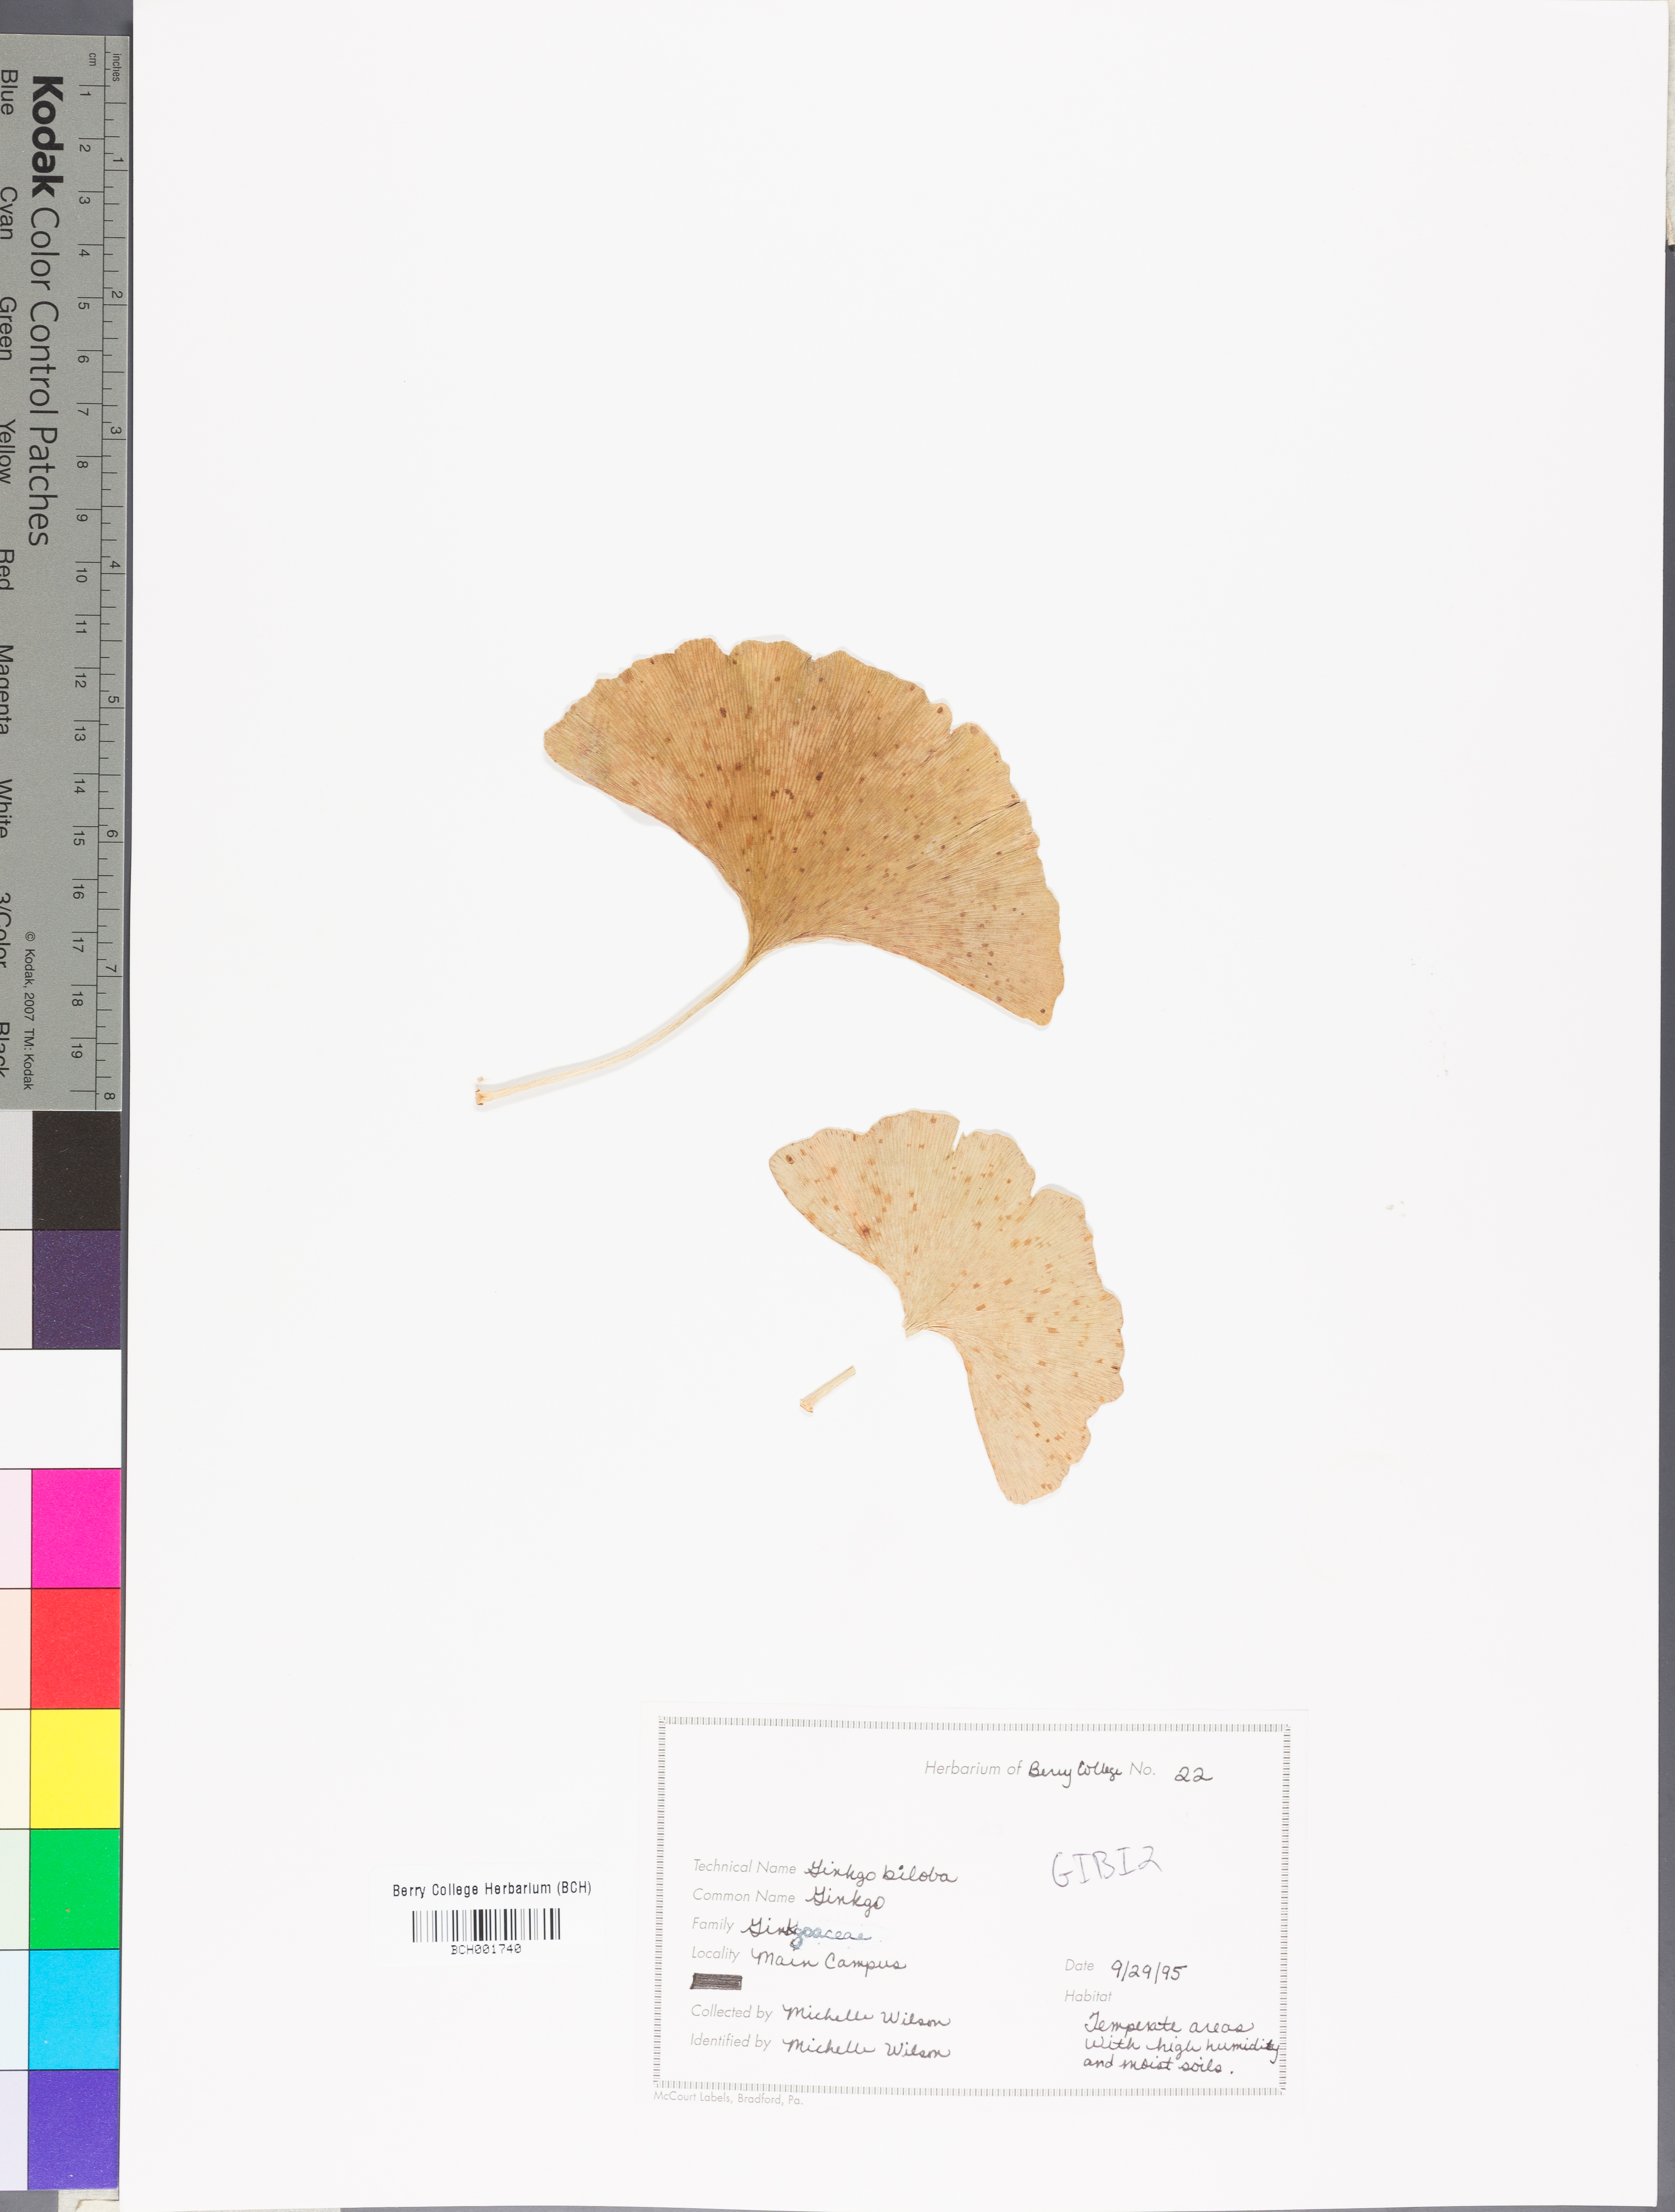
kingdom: Plantae
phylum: Tracheophyta
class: Ginkgoopsida
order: Ginkgoales
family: Ginkgoaceae
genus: Ginkgo
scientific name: Ginkgo biloba
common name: Ginkgo
